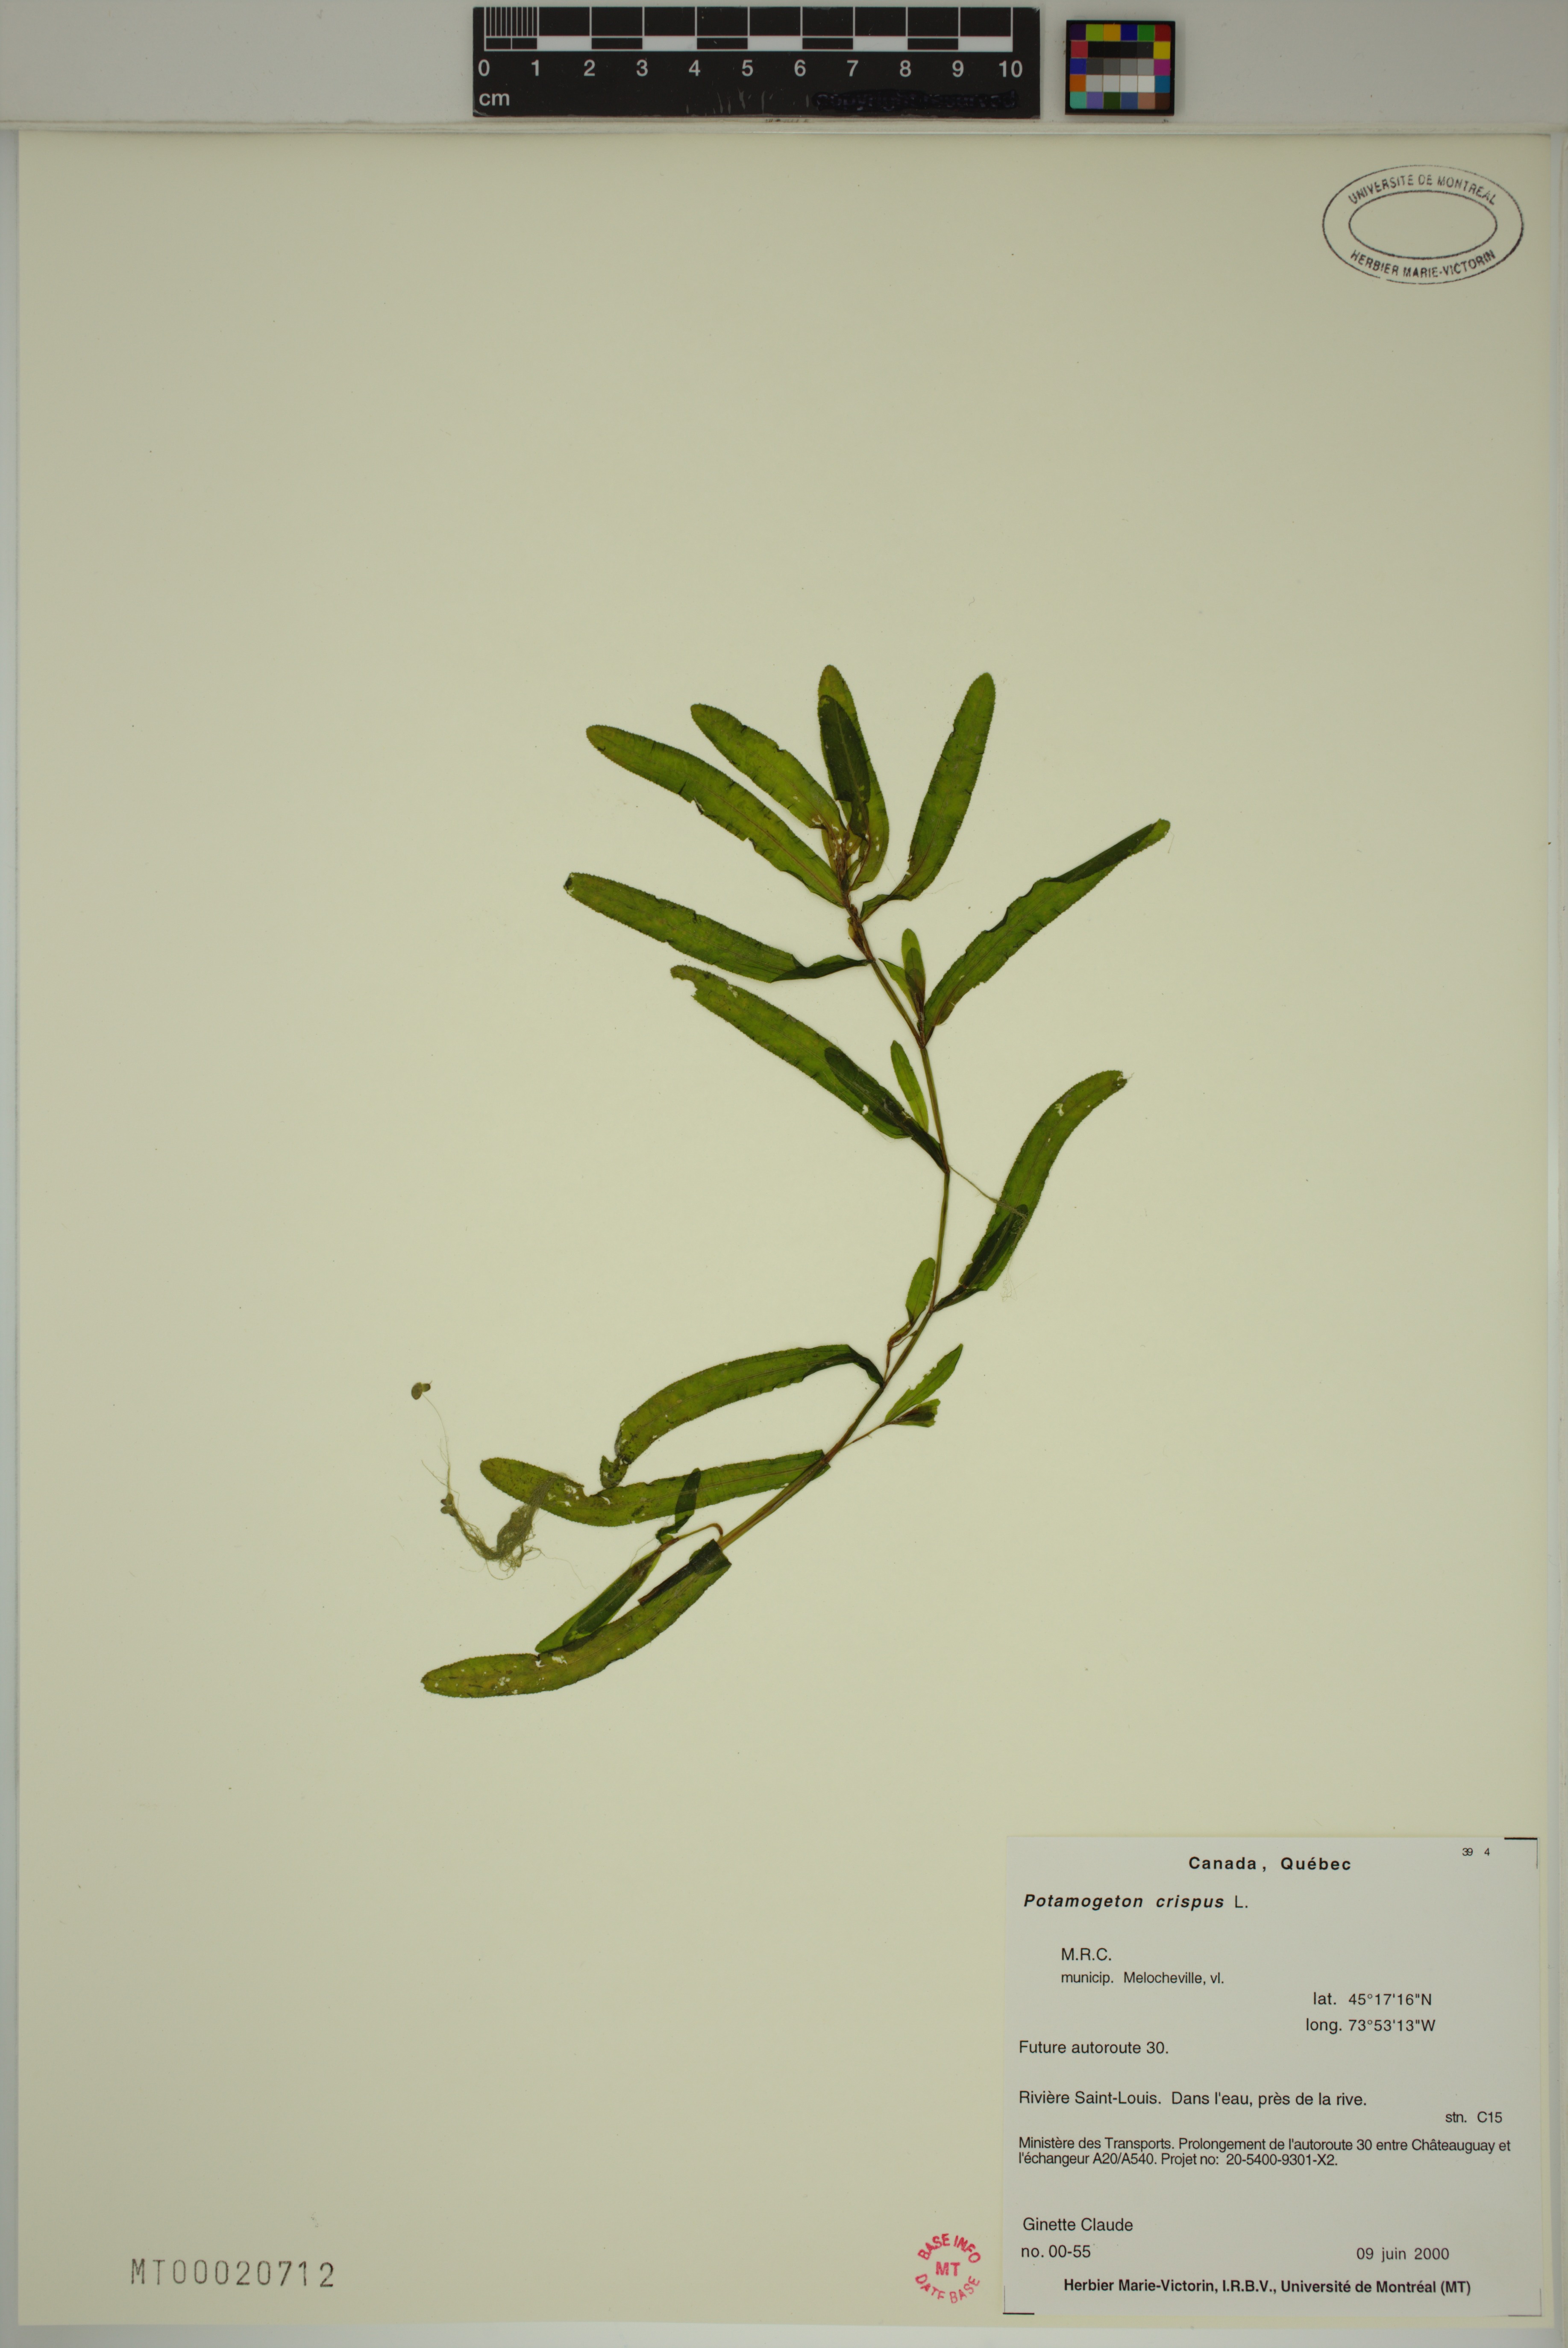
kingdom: Plantae
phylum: Tracheophyta
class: Liliopsida
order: Alismatales
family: Potamogetonaceae
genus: Potamogeton
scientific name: Potamogeton crispus
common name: Curled pondweed
